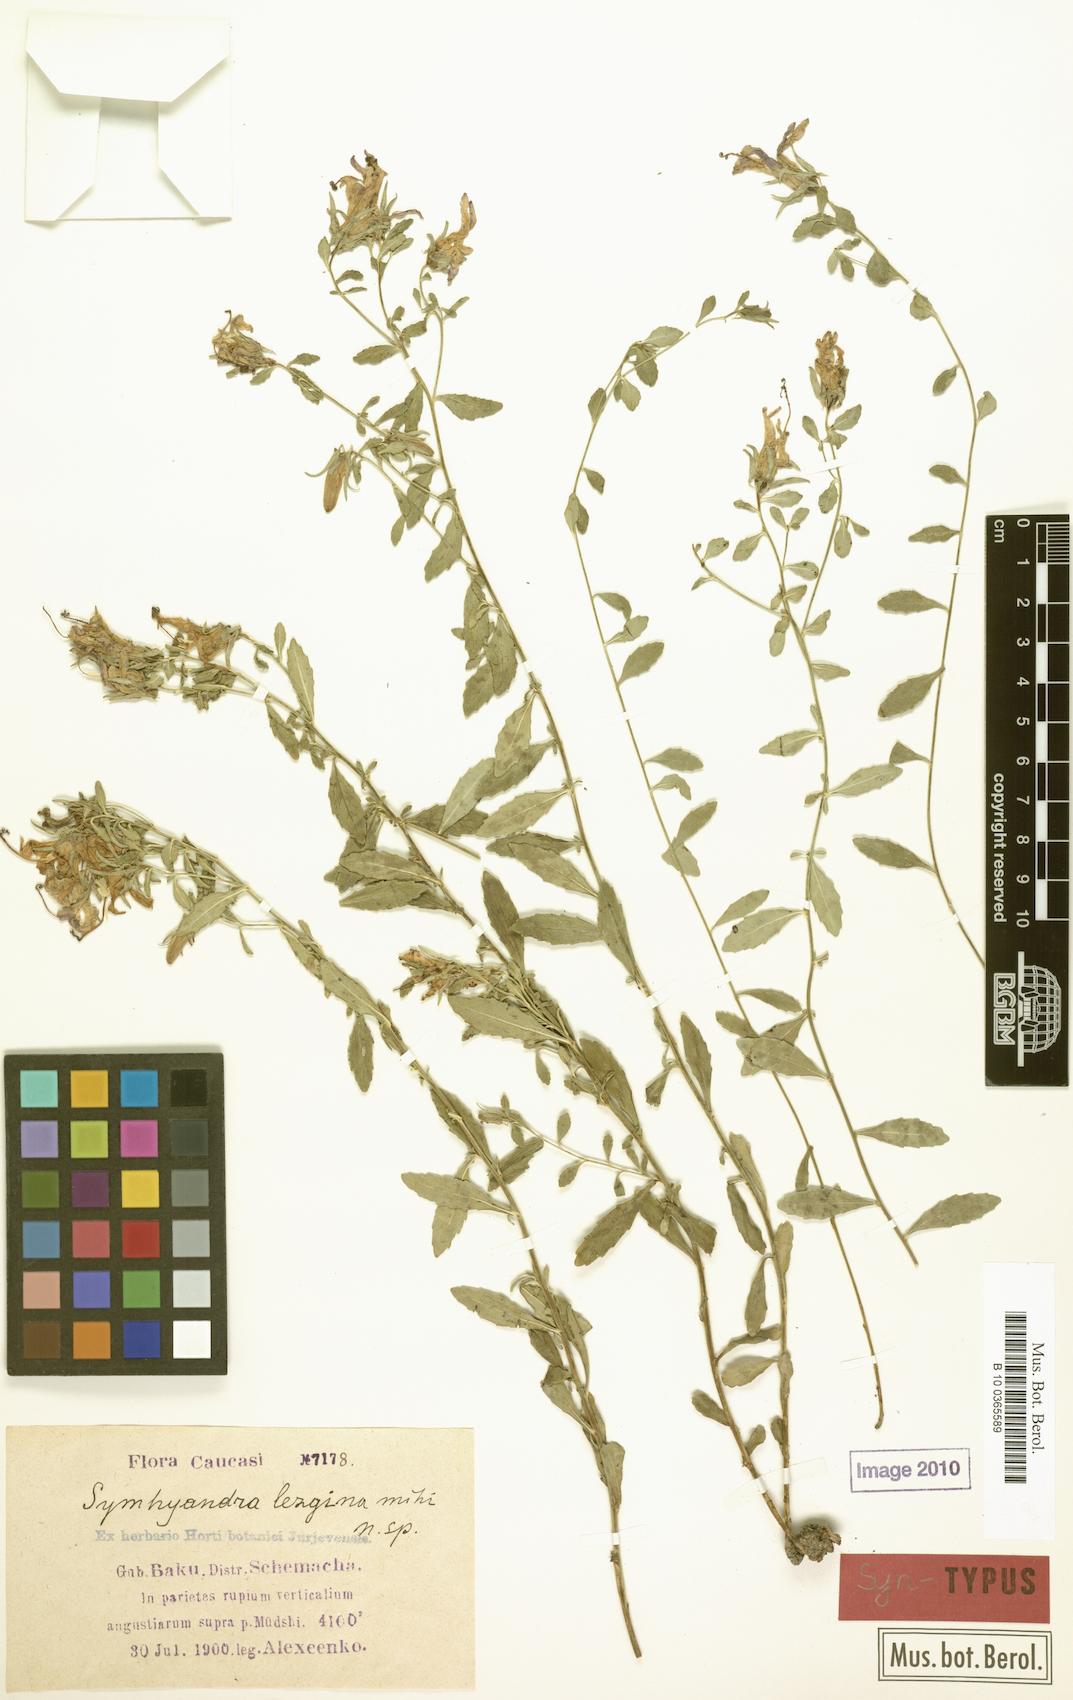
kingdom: Plantae
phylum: Tracheophyta
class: Magnoliopsida
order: Asterales
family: Campanulaceae
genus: Campanula
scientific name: Campanula lezgina
